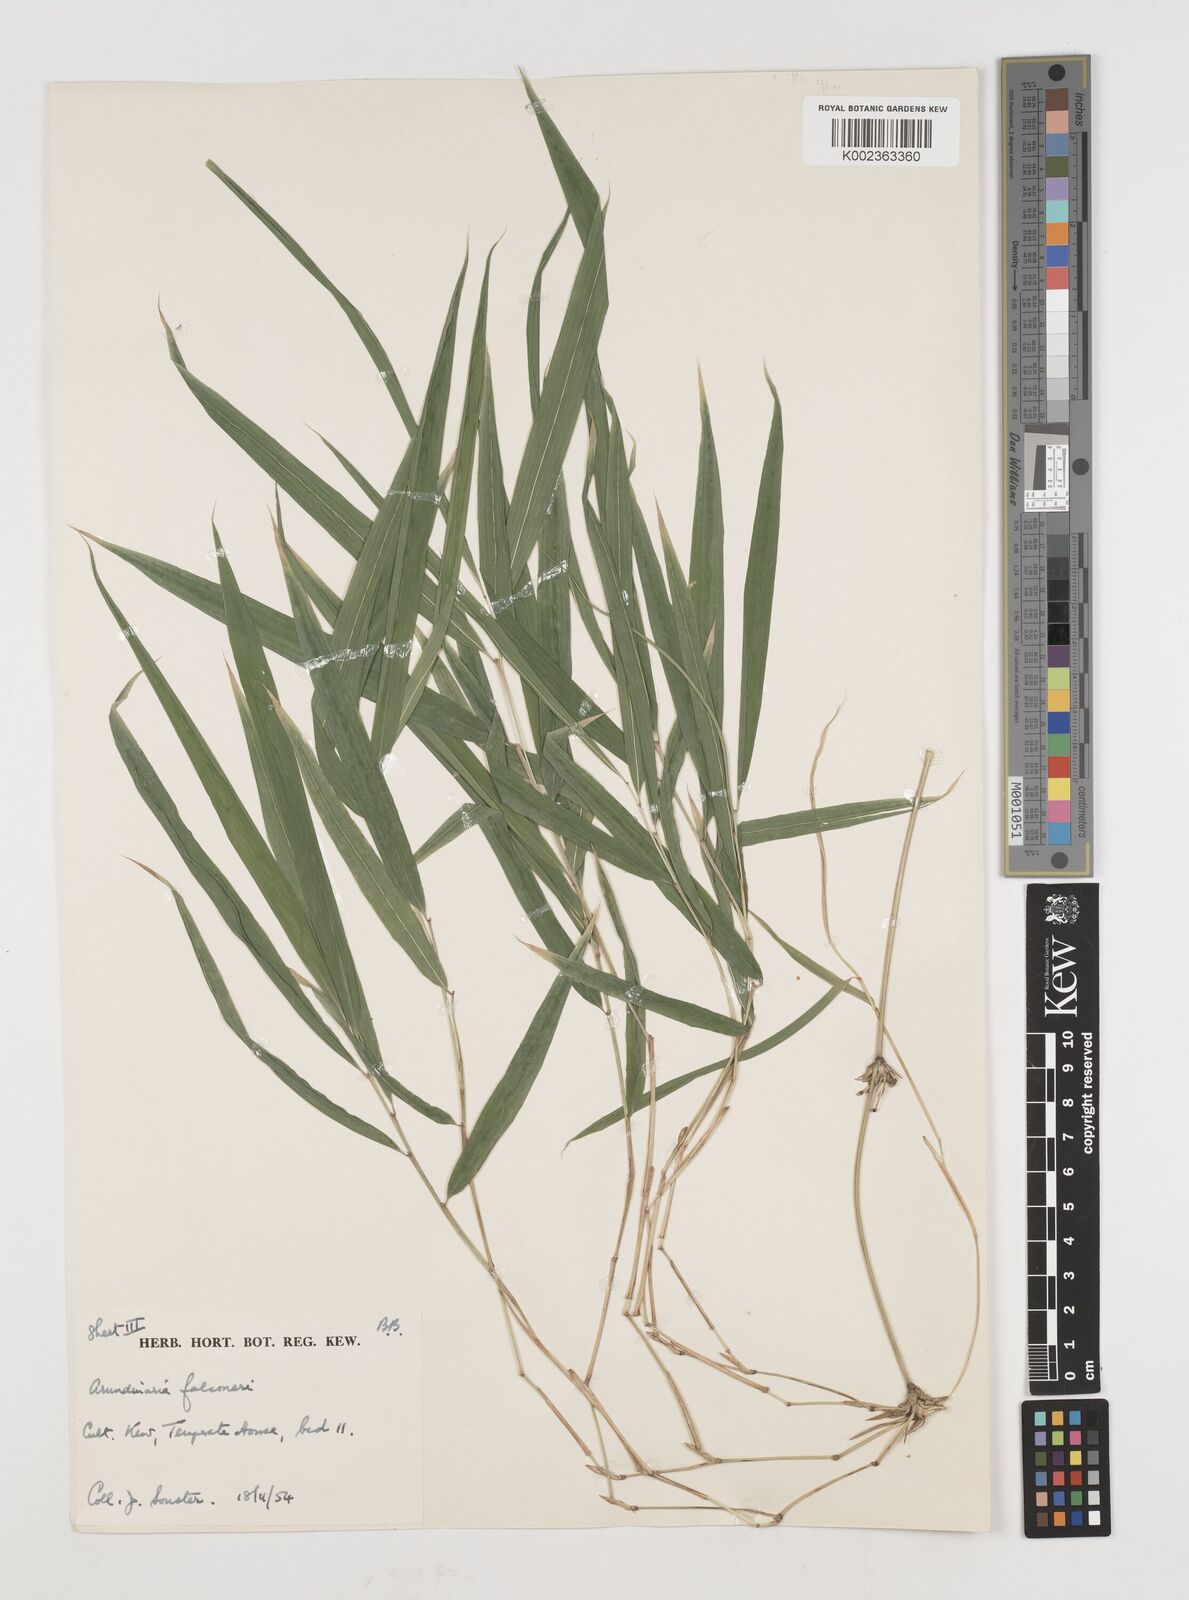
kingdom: Plantae
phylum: Tracheophyta
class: Liliopsida
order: Poales
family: Poaceae
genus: Himalayacalamus
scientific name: Himalayacalamus falconeri
